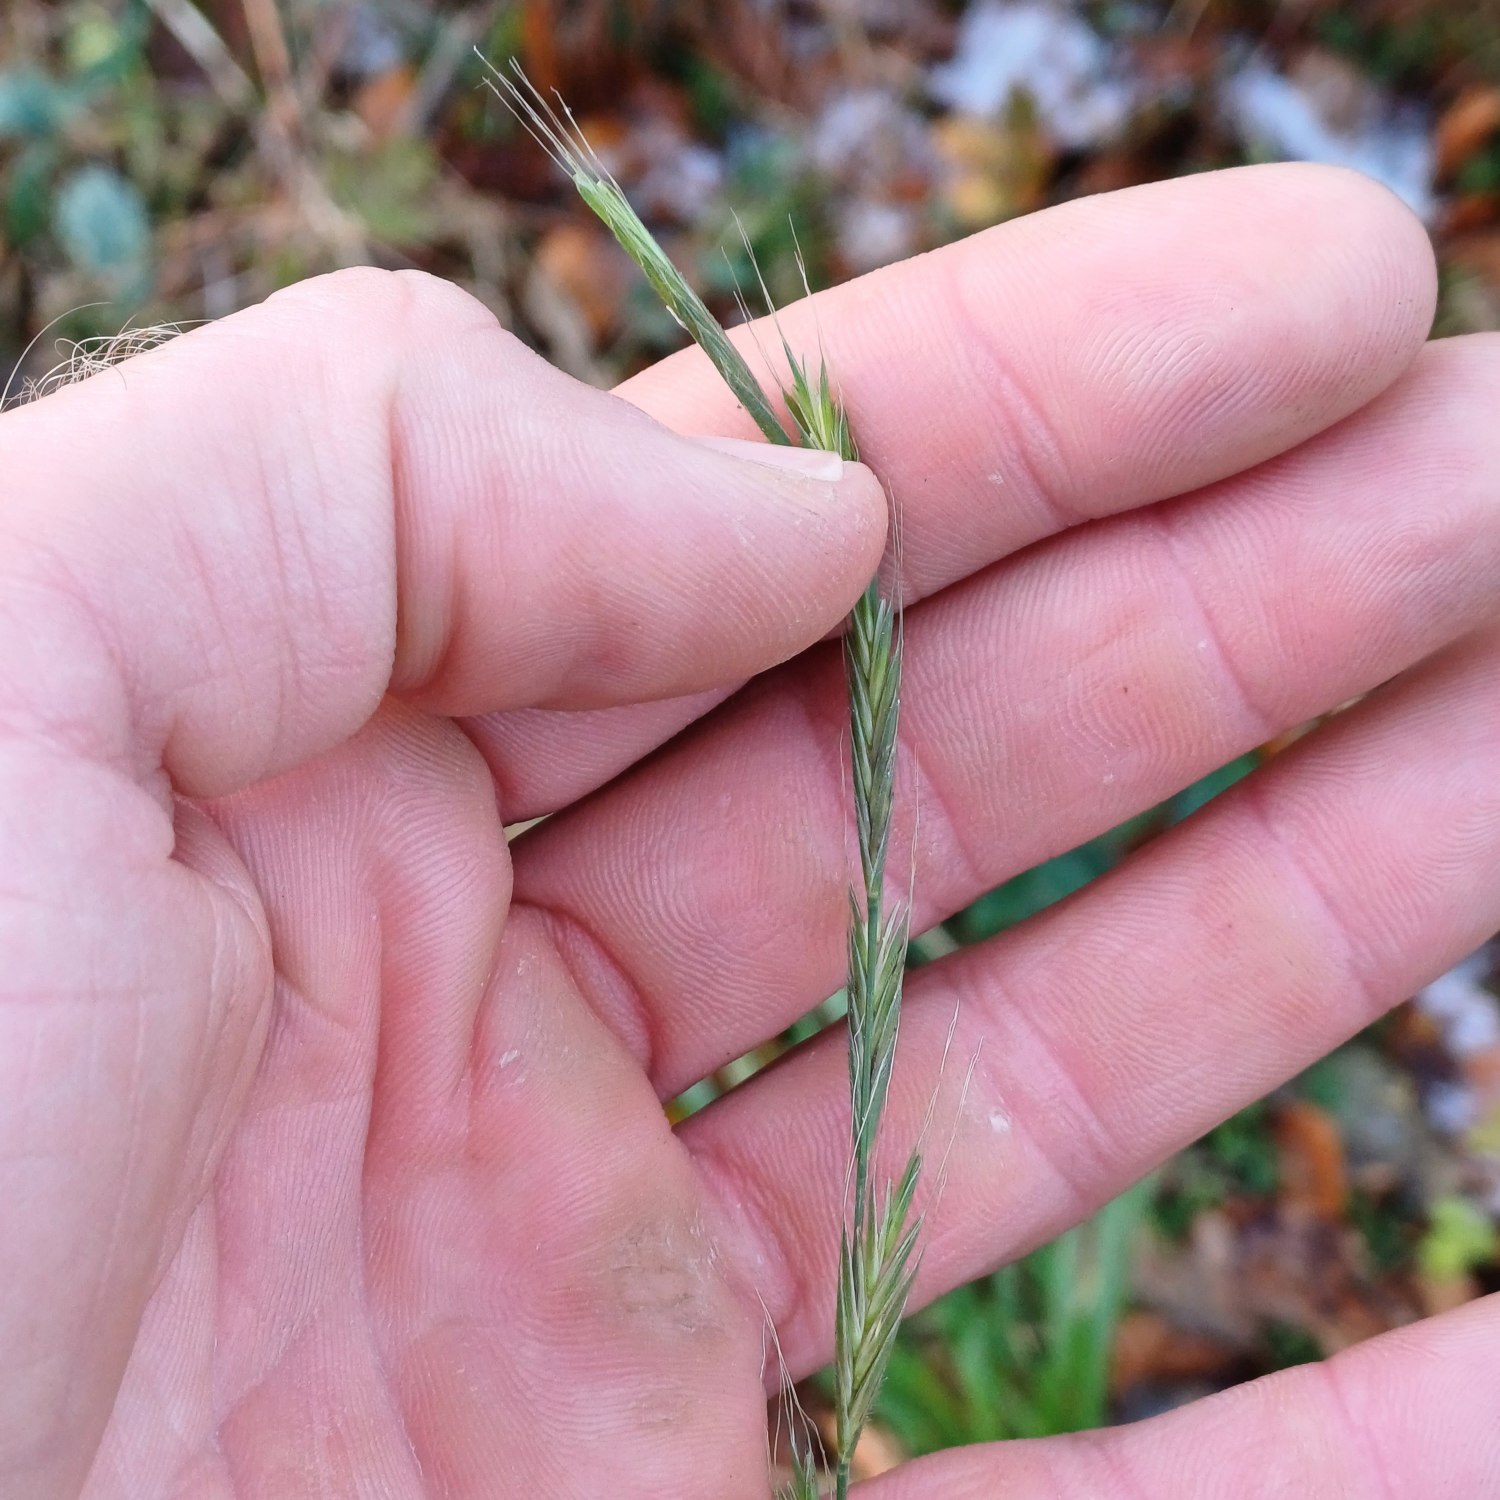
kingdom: Plantae
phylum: Tracheophyta
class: Liliopsida
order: Poales
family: Poaceae
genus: Brachypodium
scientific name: Brachypodium sylvaticum
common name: Skov-stilkaks
